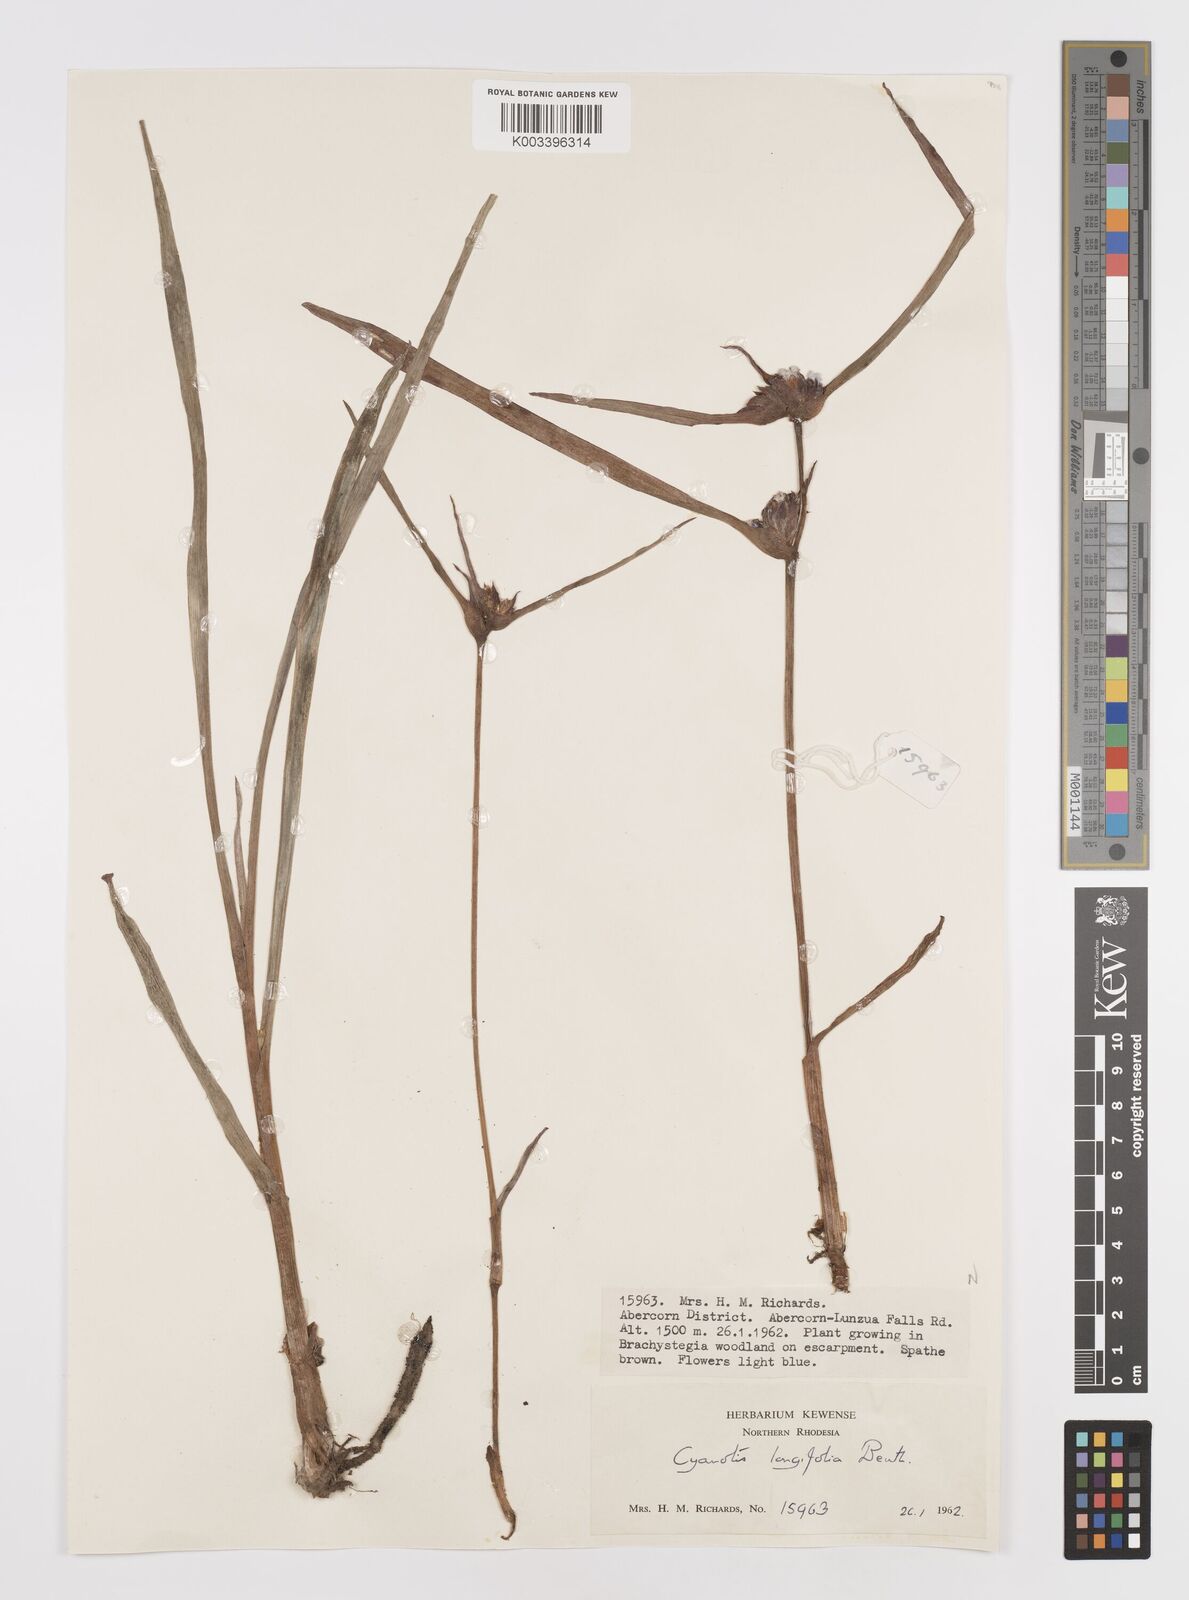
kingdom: Plantae
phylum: Tracheophyta
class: Liliopsida
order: Commelinales
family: Commelinaceae
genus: Cyanotis
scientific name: Cyanotis longifolia
